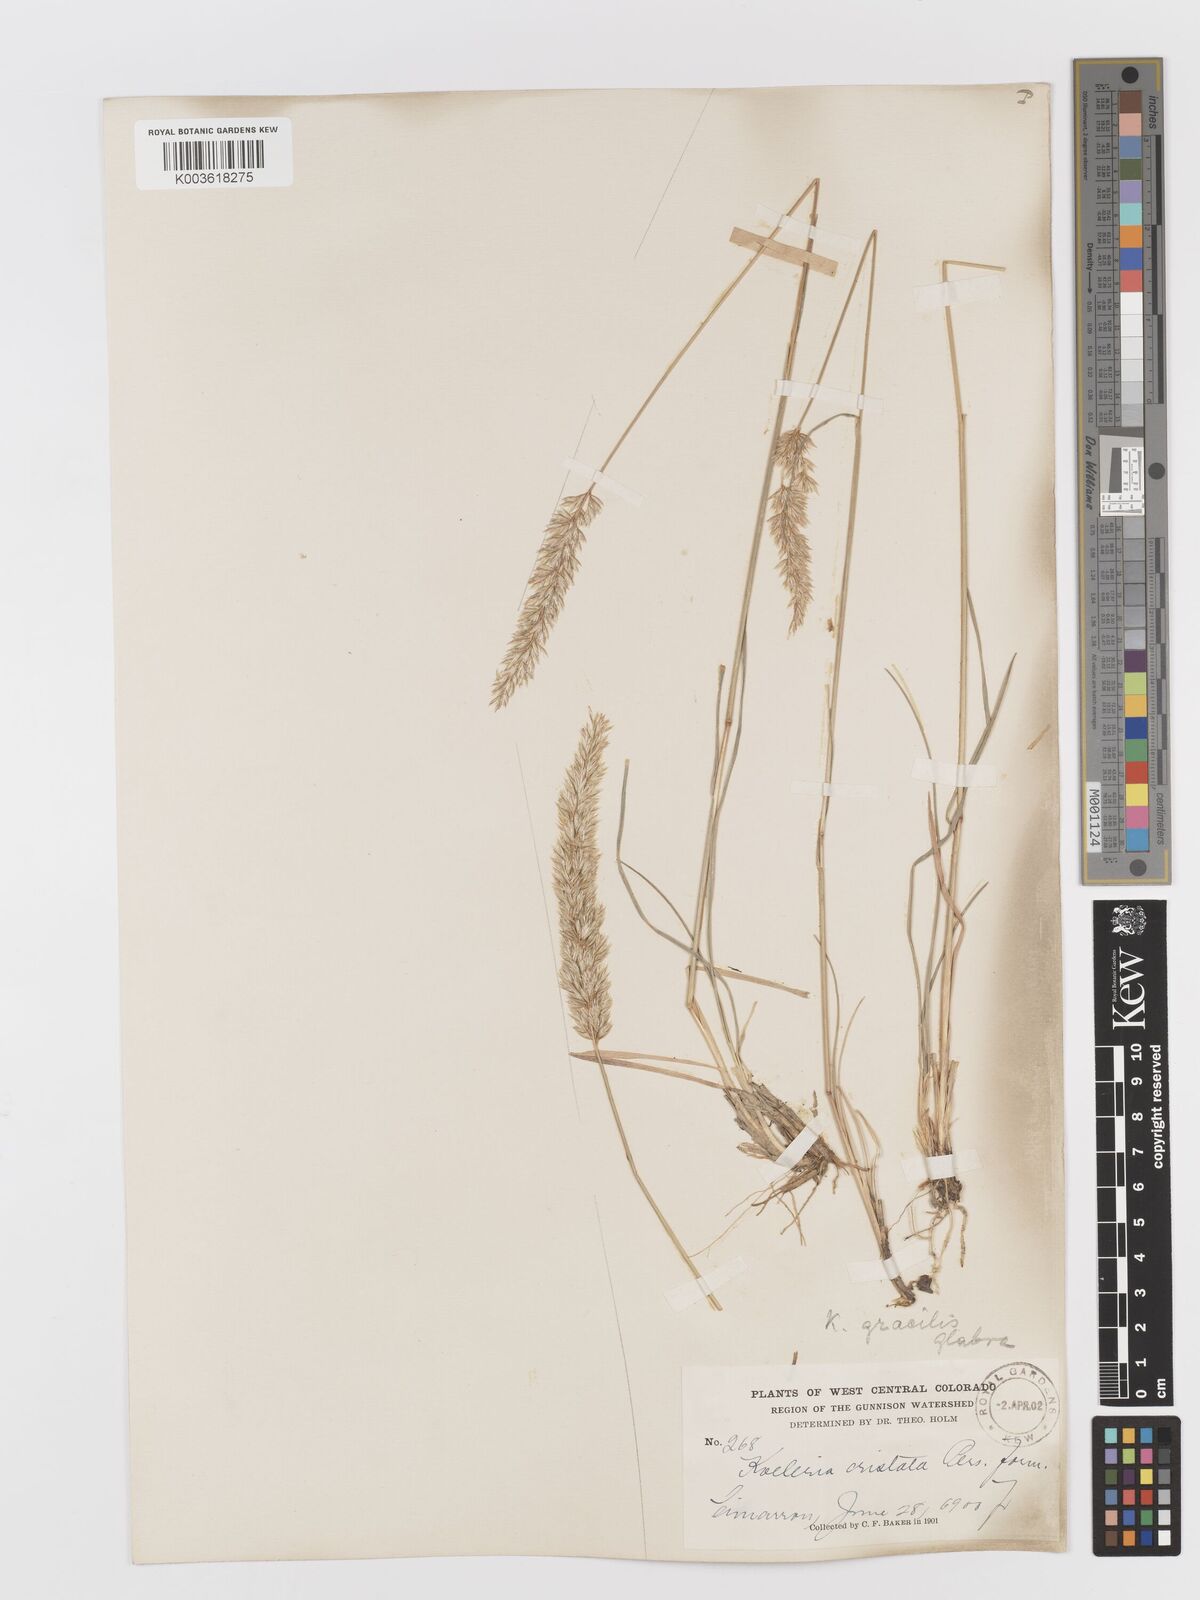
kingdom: Plantae
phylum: Tracheophyta
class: Liliopsida
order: Poales
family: Poaceae
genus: Koeleria
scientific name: Koeleria macrantha
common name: Crested hair-grass
